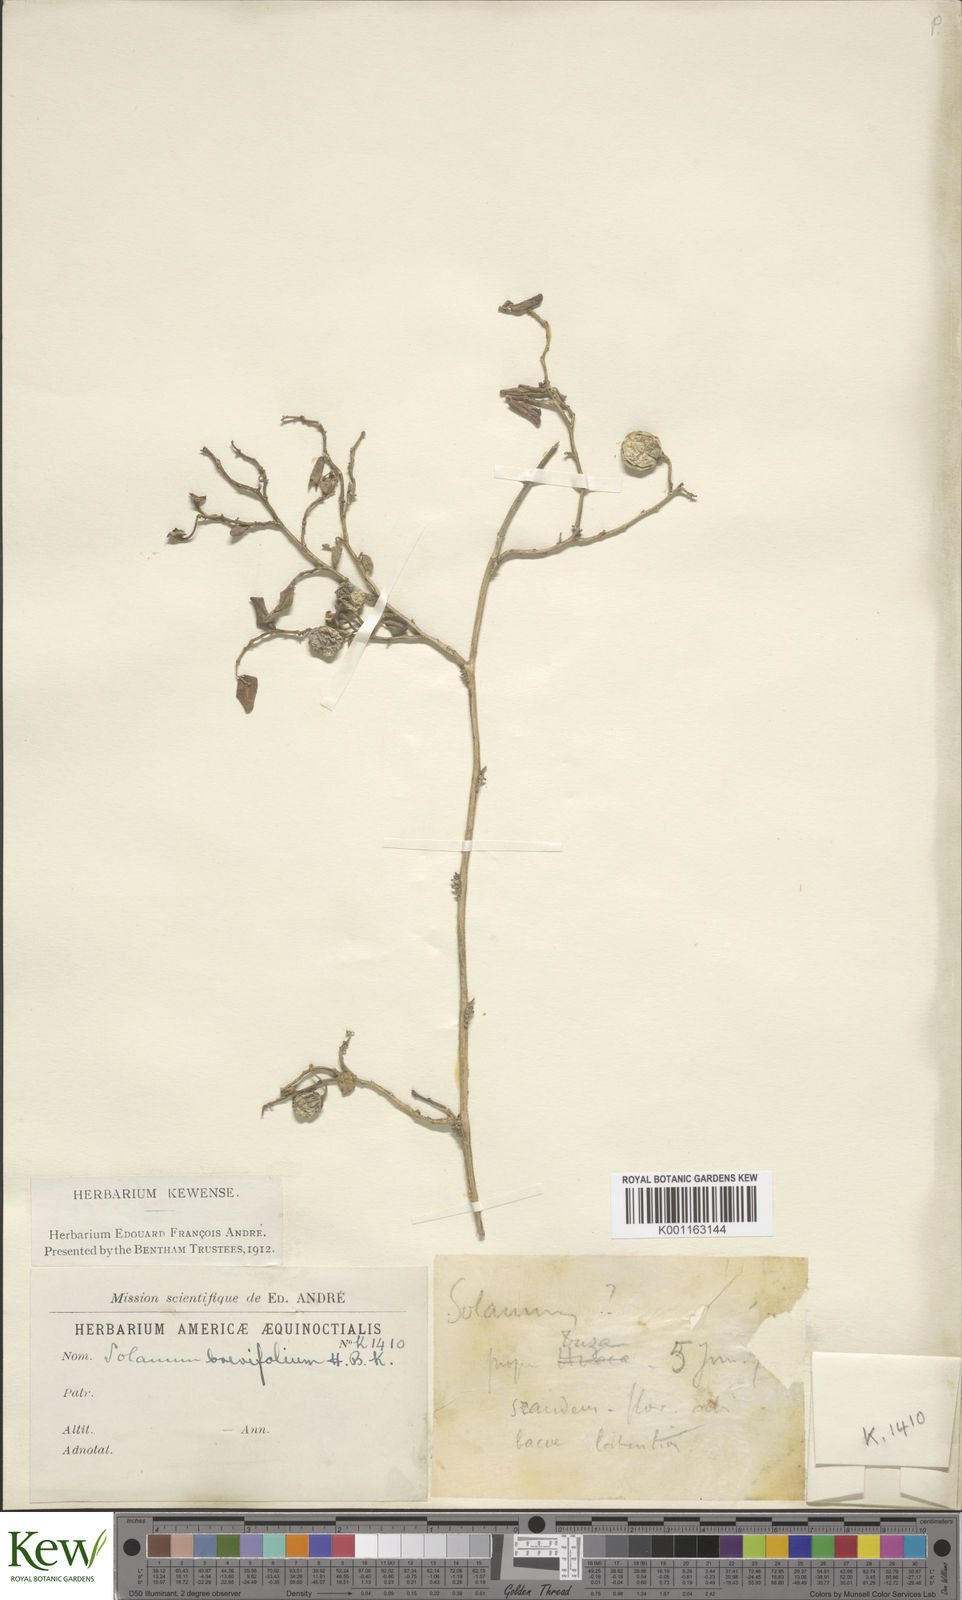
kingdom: Plantae
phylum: Tracheophyta
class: Magnoliopsida
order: Solanales
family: Solanaceae
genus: Solanum
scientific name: Solanum brevifolium
